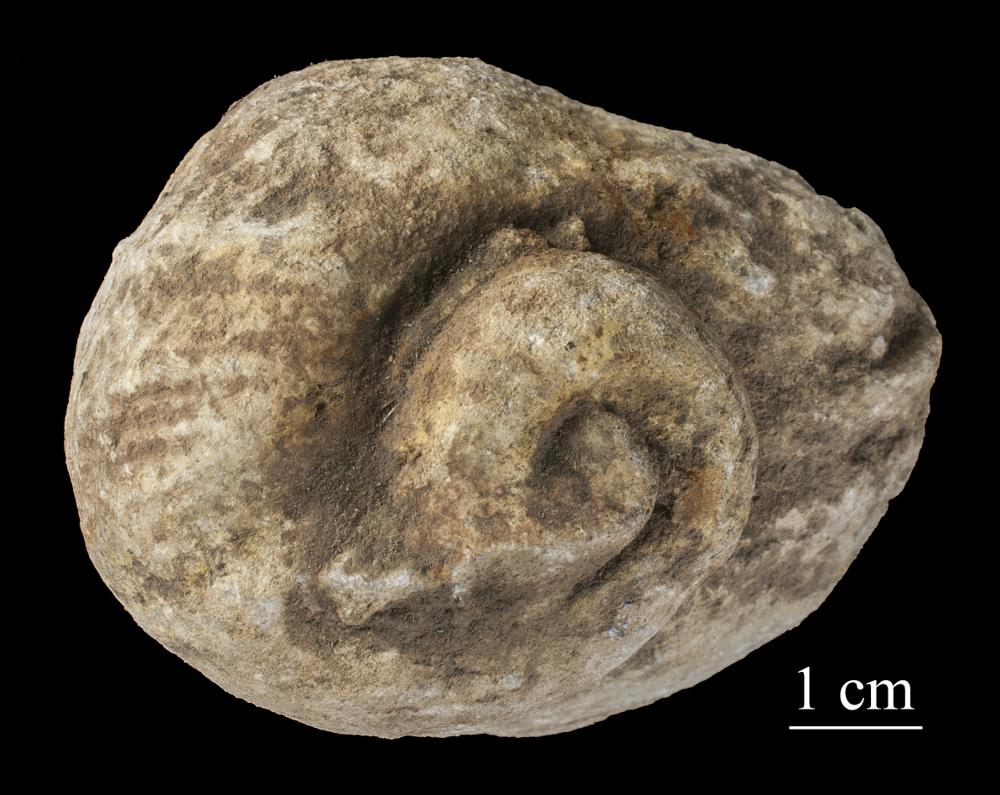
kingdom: Animalia
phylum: Mollusca
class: Gastropoda
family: Holopeidae
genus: Holopea
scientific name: Holopea ampullacea
